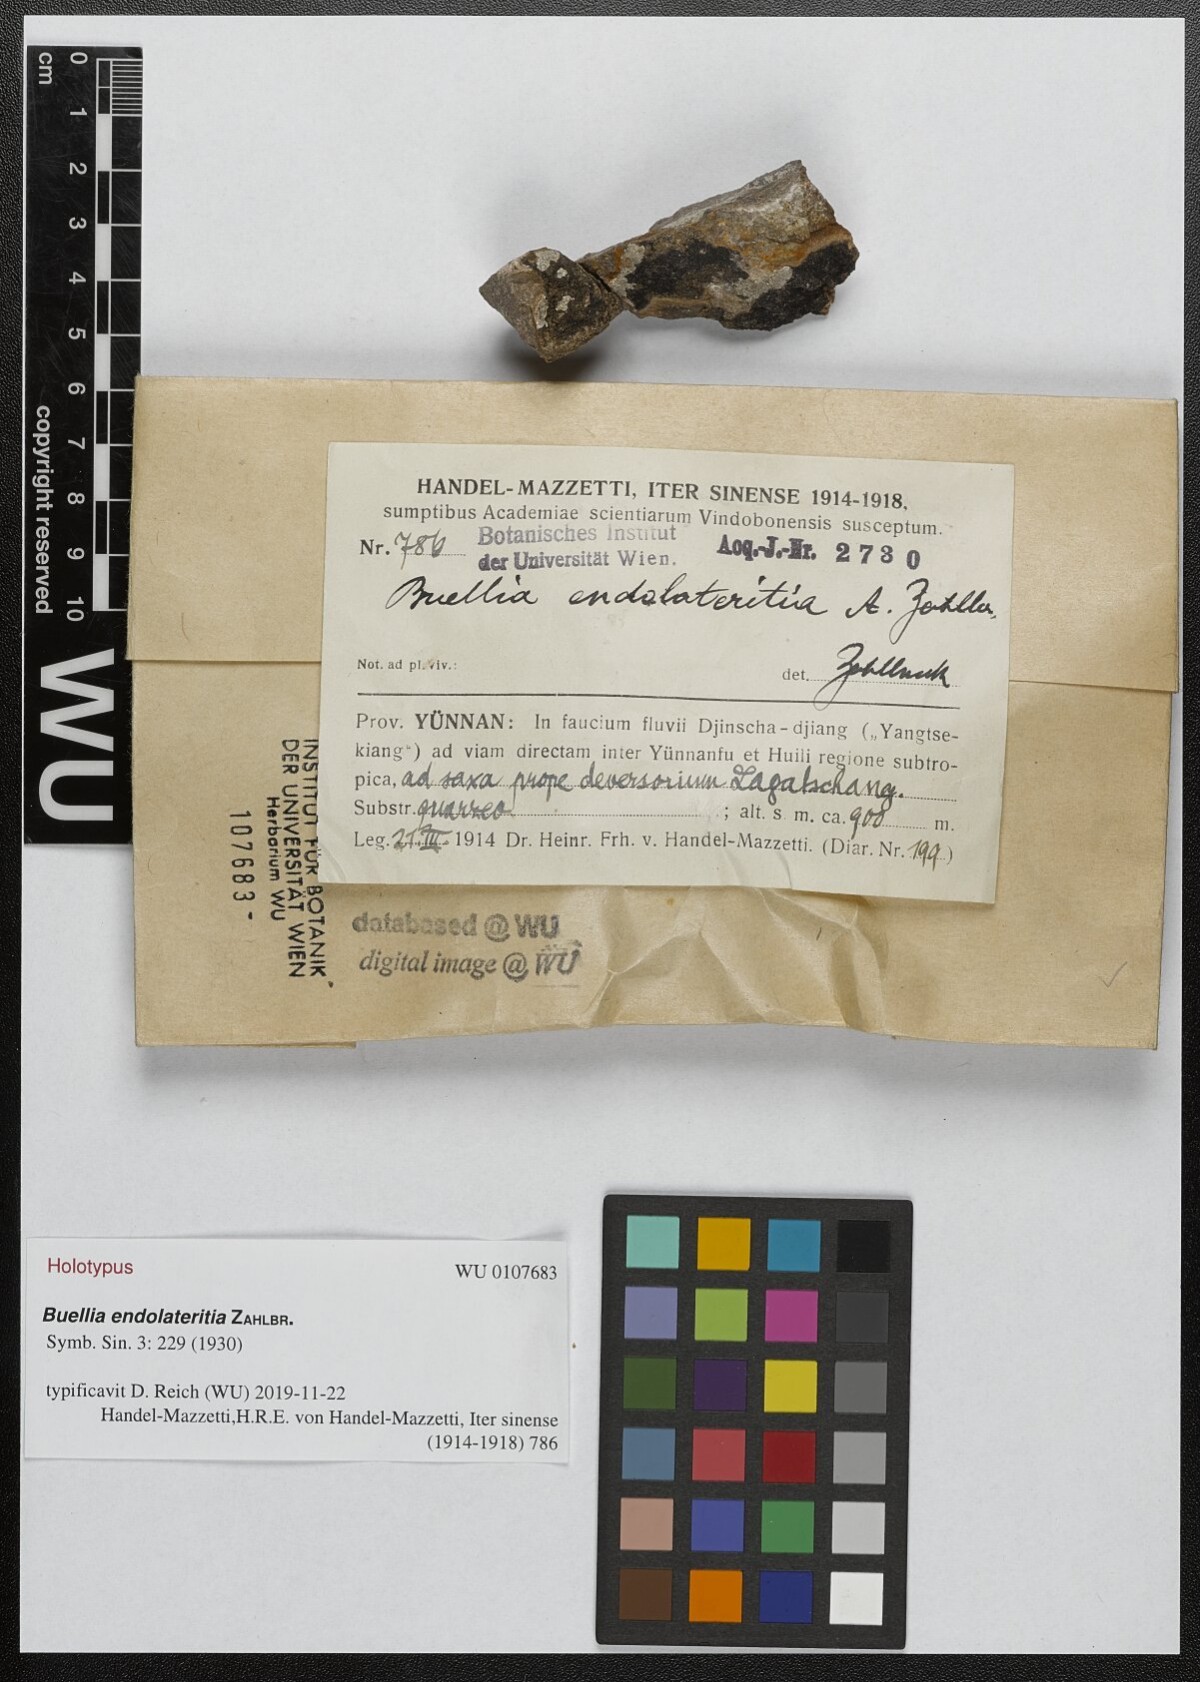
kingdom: Fungi
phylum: Ascomycota
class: Lecanoromycetes
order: Caliciales
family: Physciaceae
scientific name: Physciaceae
